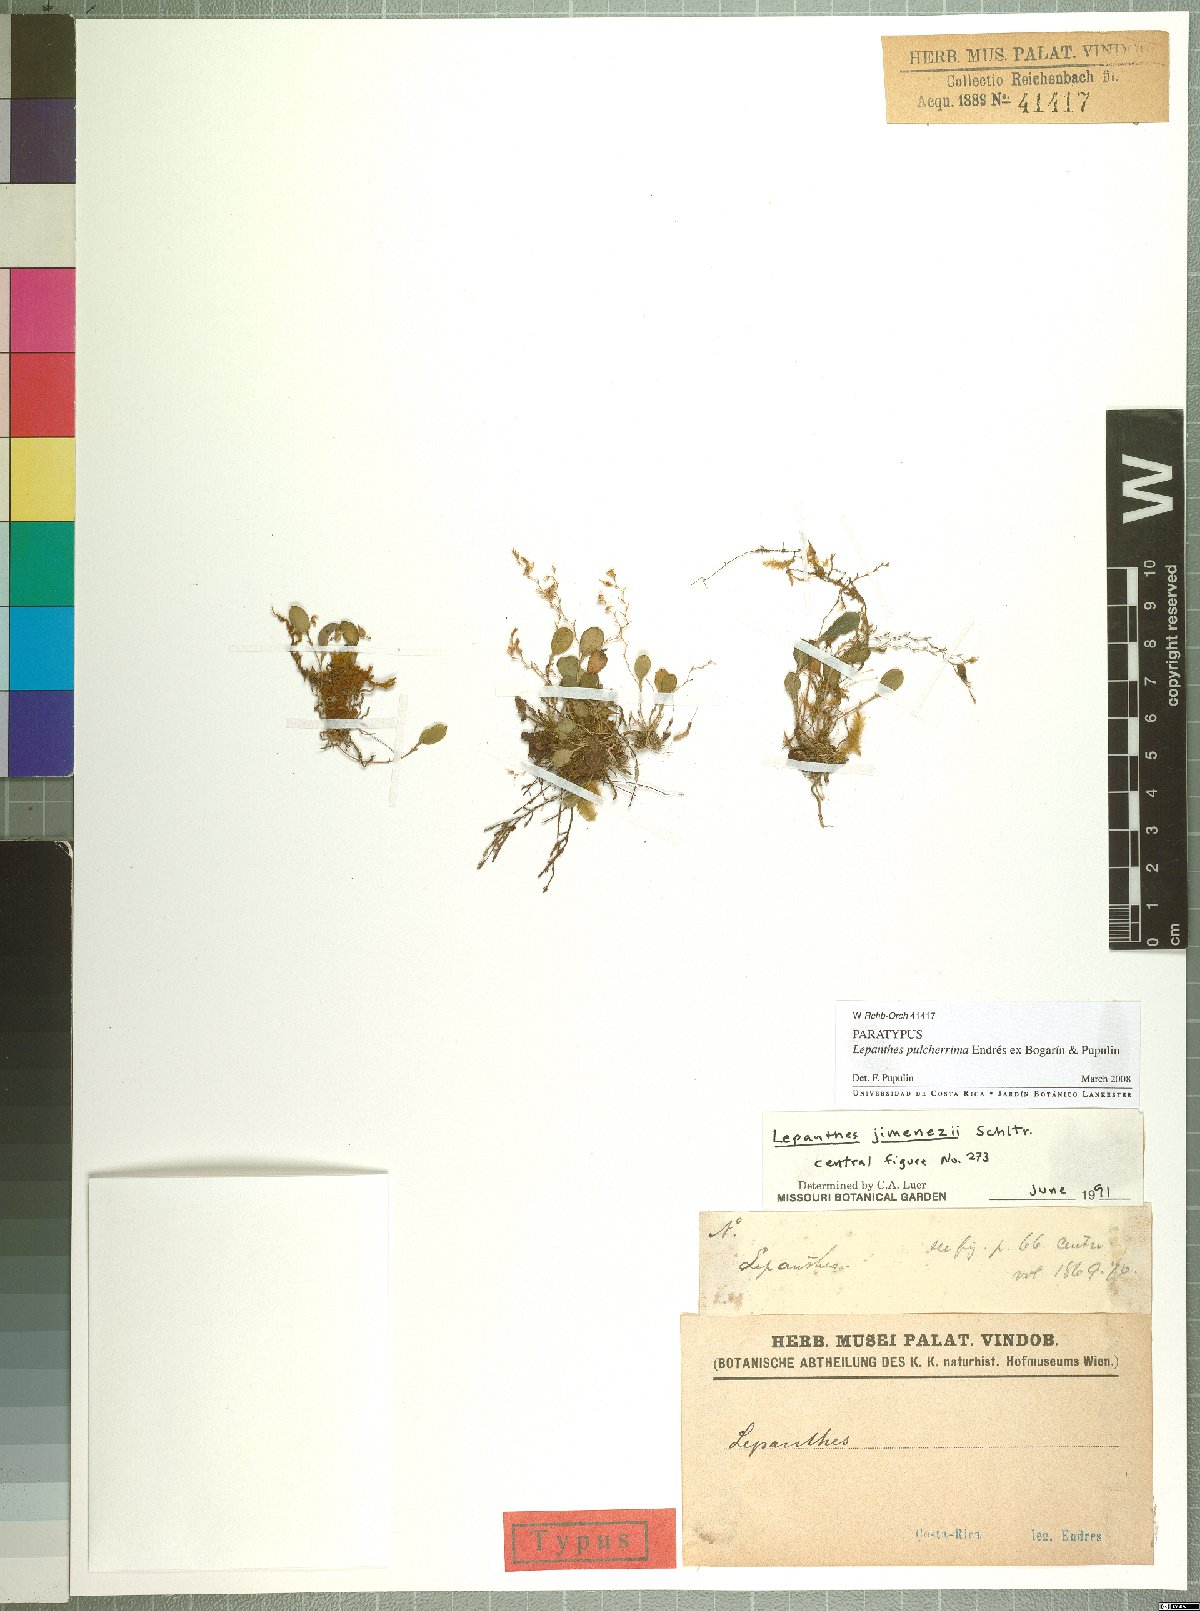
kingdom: Plantae
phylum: Tracheophyta
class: Liliopsida
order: Asparagales
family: Orchidaceae
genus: Lepanthes
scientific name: Lepanthes pulcherrima
